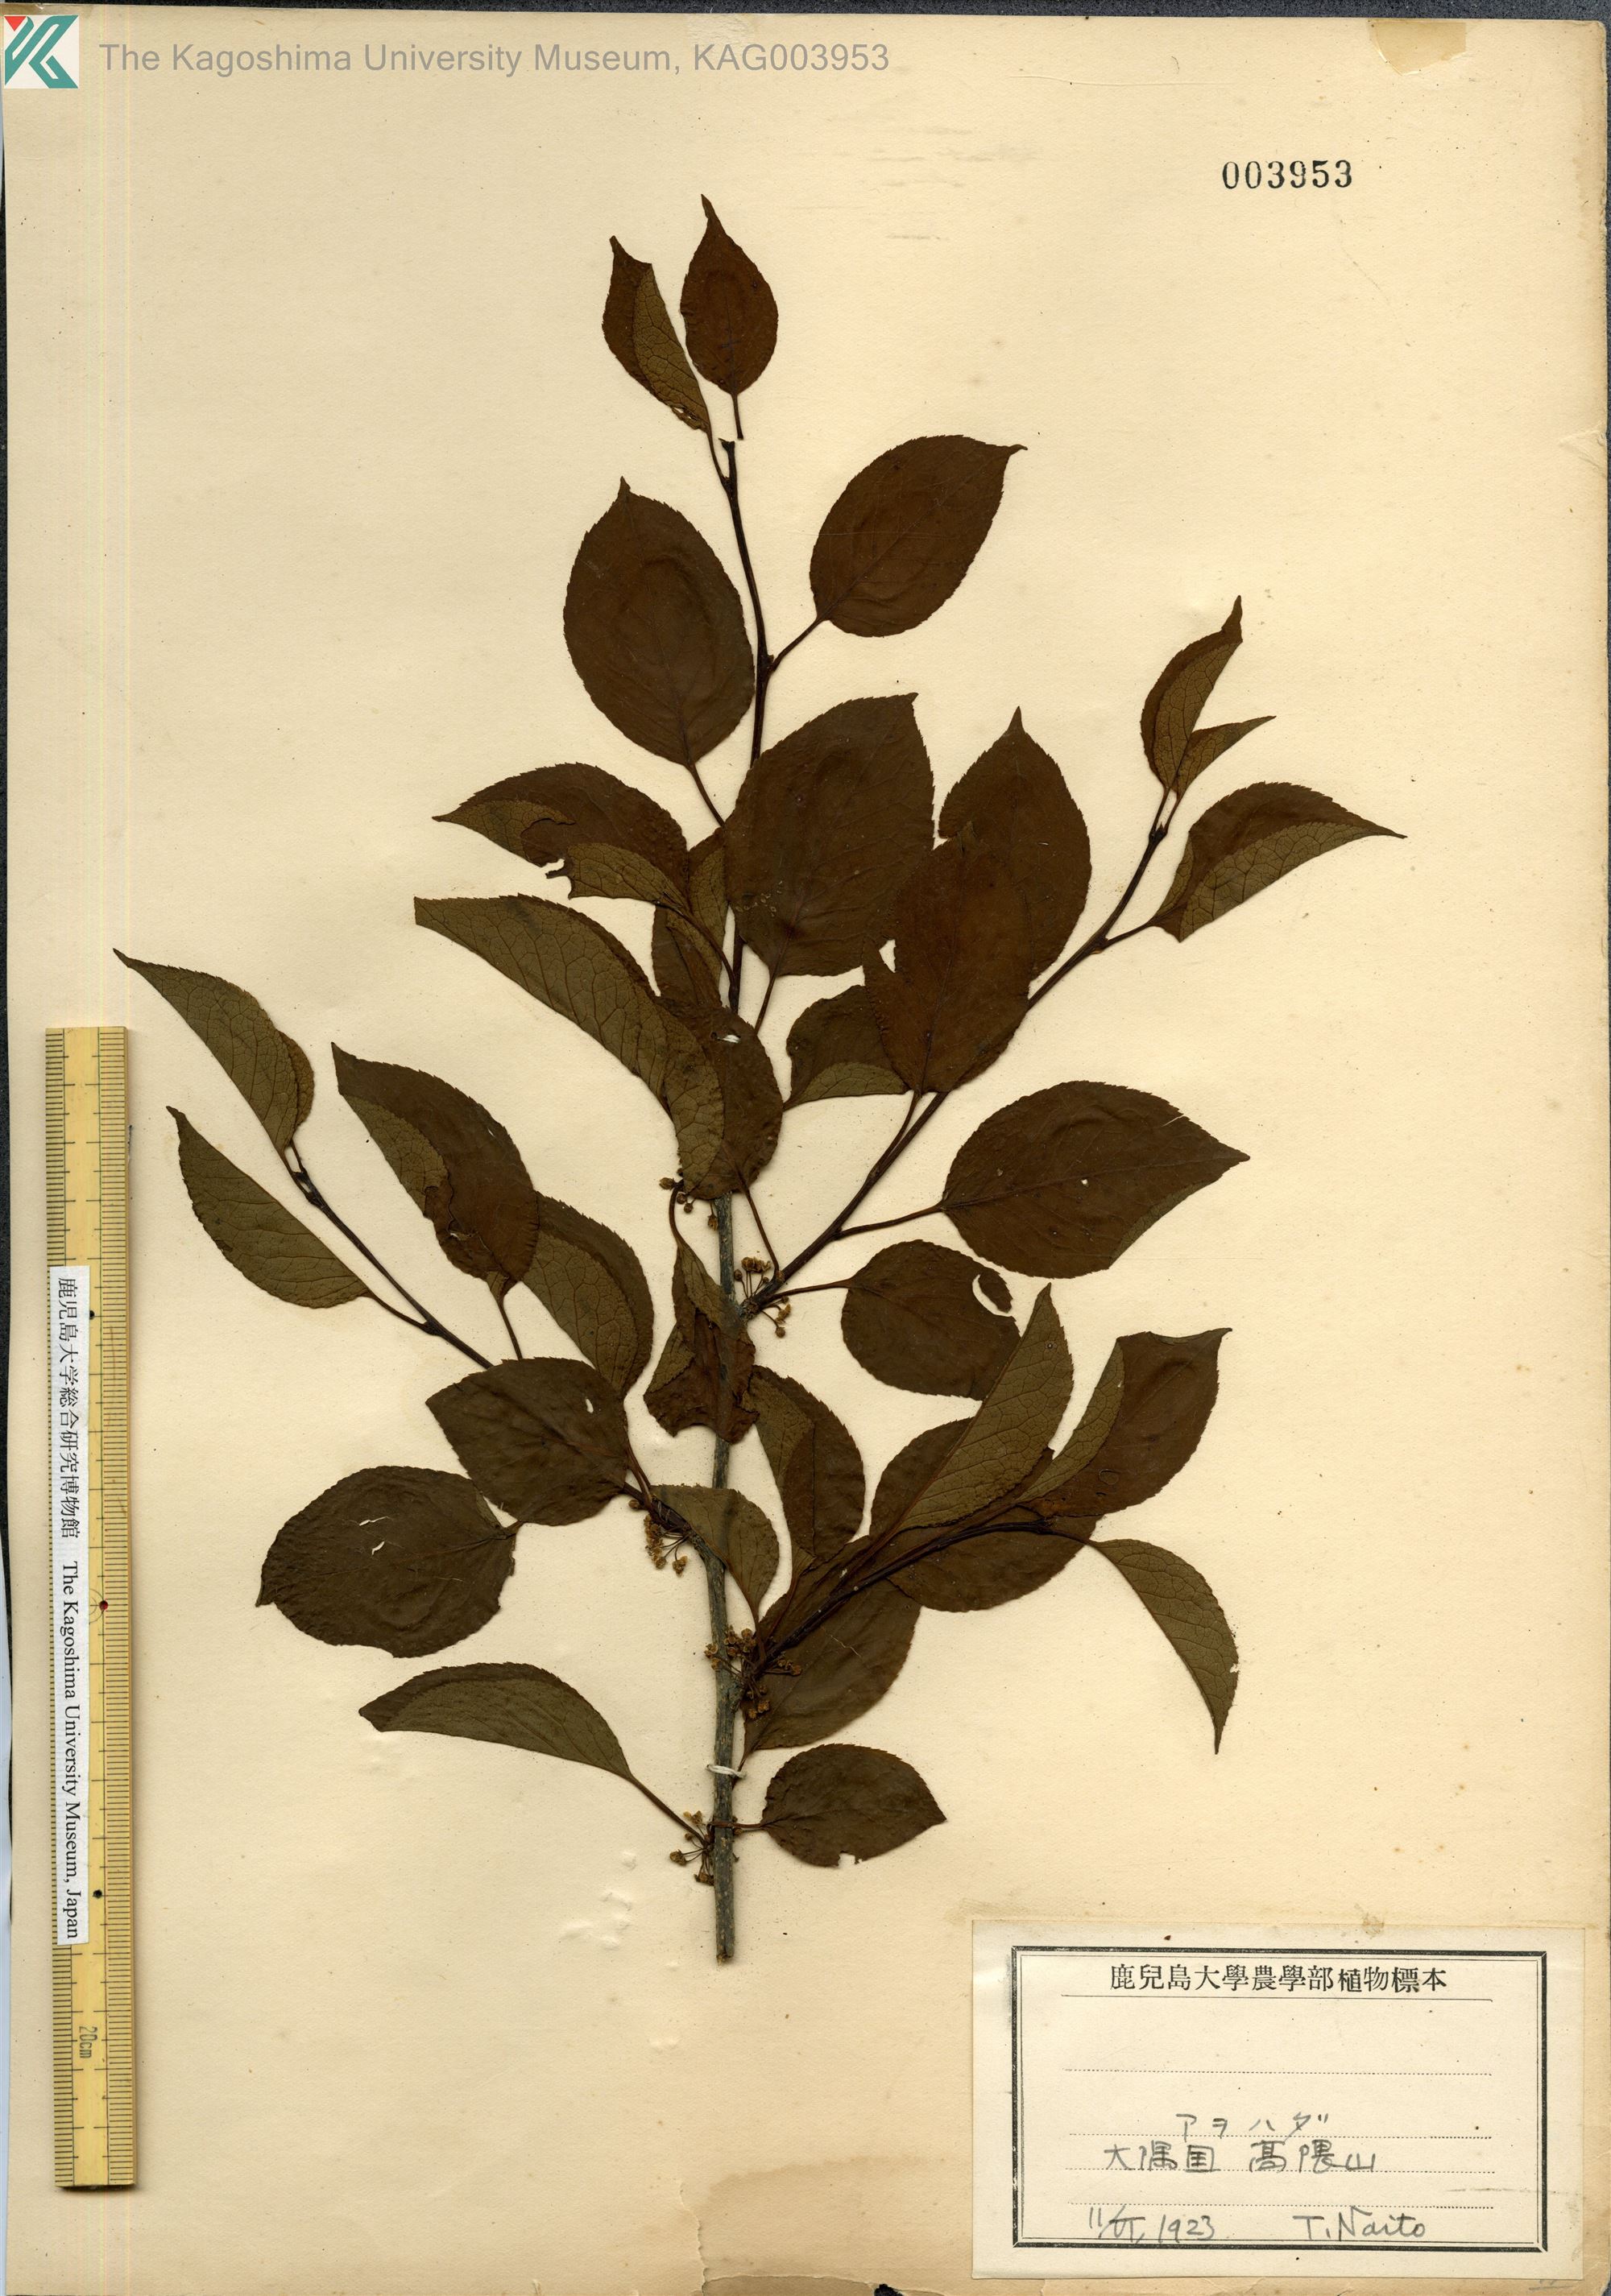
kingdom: Plantae
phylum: Tracheophyta
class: Magnoliopsida
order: Aquifoliales
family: Aquifoliaceae
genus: Ilex
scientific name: Ilex macropoda
